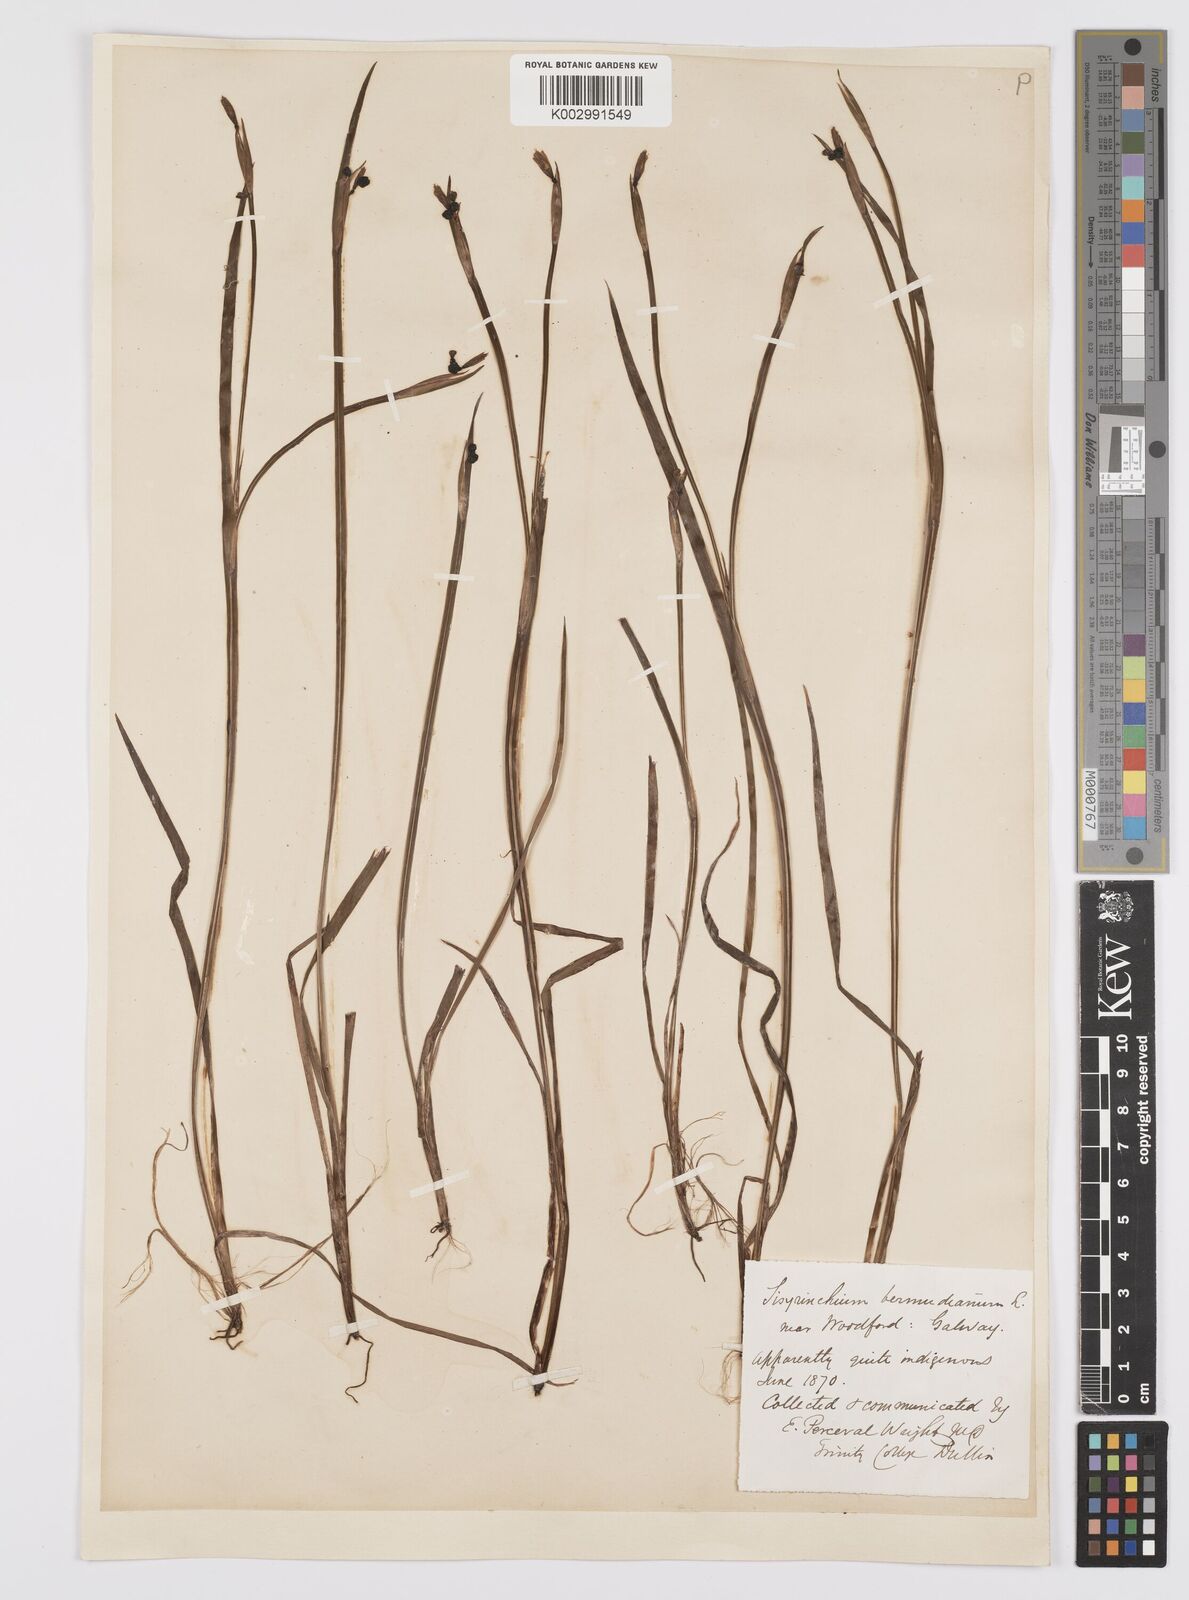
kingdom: Plantae
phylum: Tracheophyta
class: Liliopsida
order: Asparagales
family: Iridaceae
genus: Sisyrinchium
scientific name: Sisyrinchium angustifolium
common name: Narrow-leaf blue-eyed-grass
